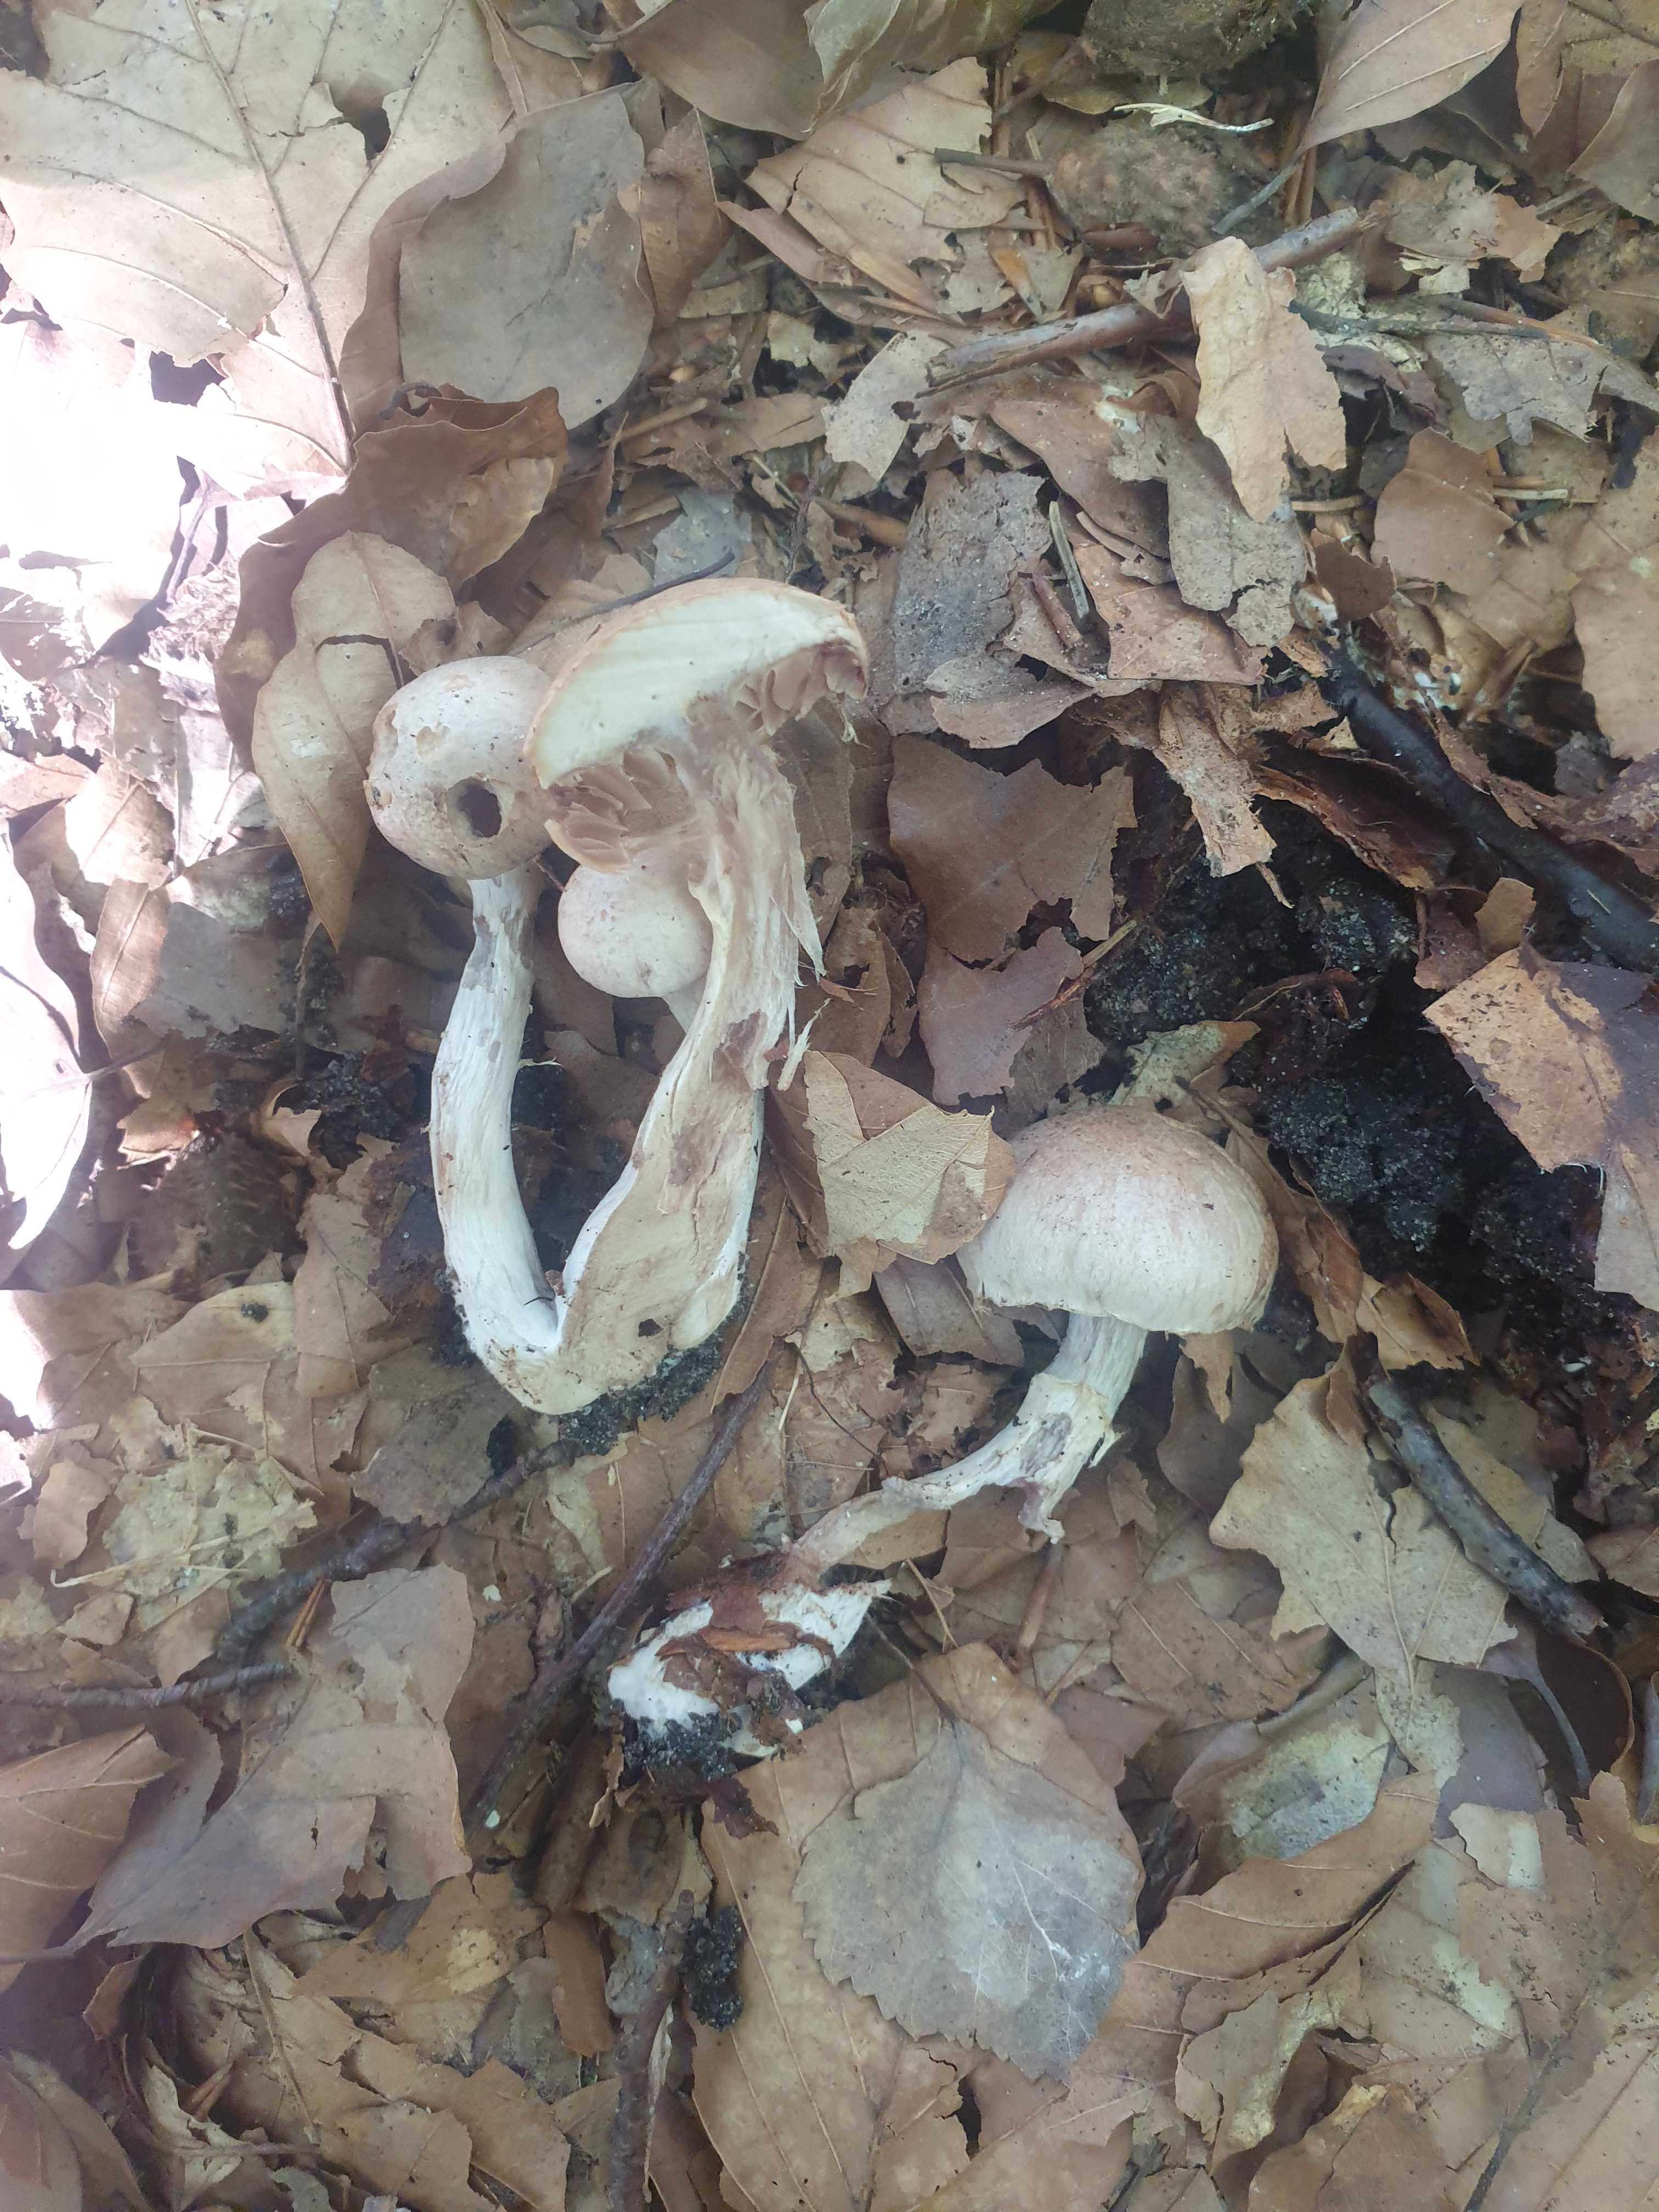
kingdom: Fungi
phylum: Basidiomycota
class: Agaricomycetes
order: Agaricales
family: Cortinariaceae
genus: Cortinarius
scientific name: Cortinarius
